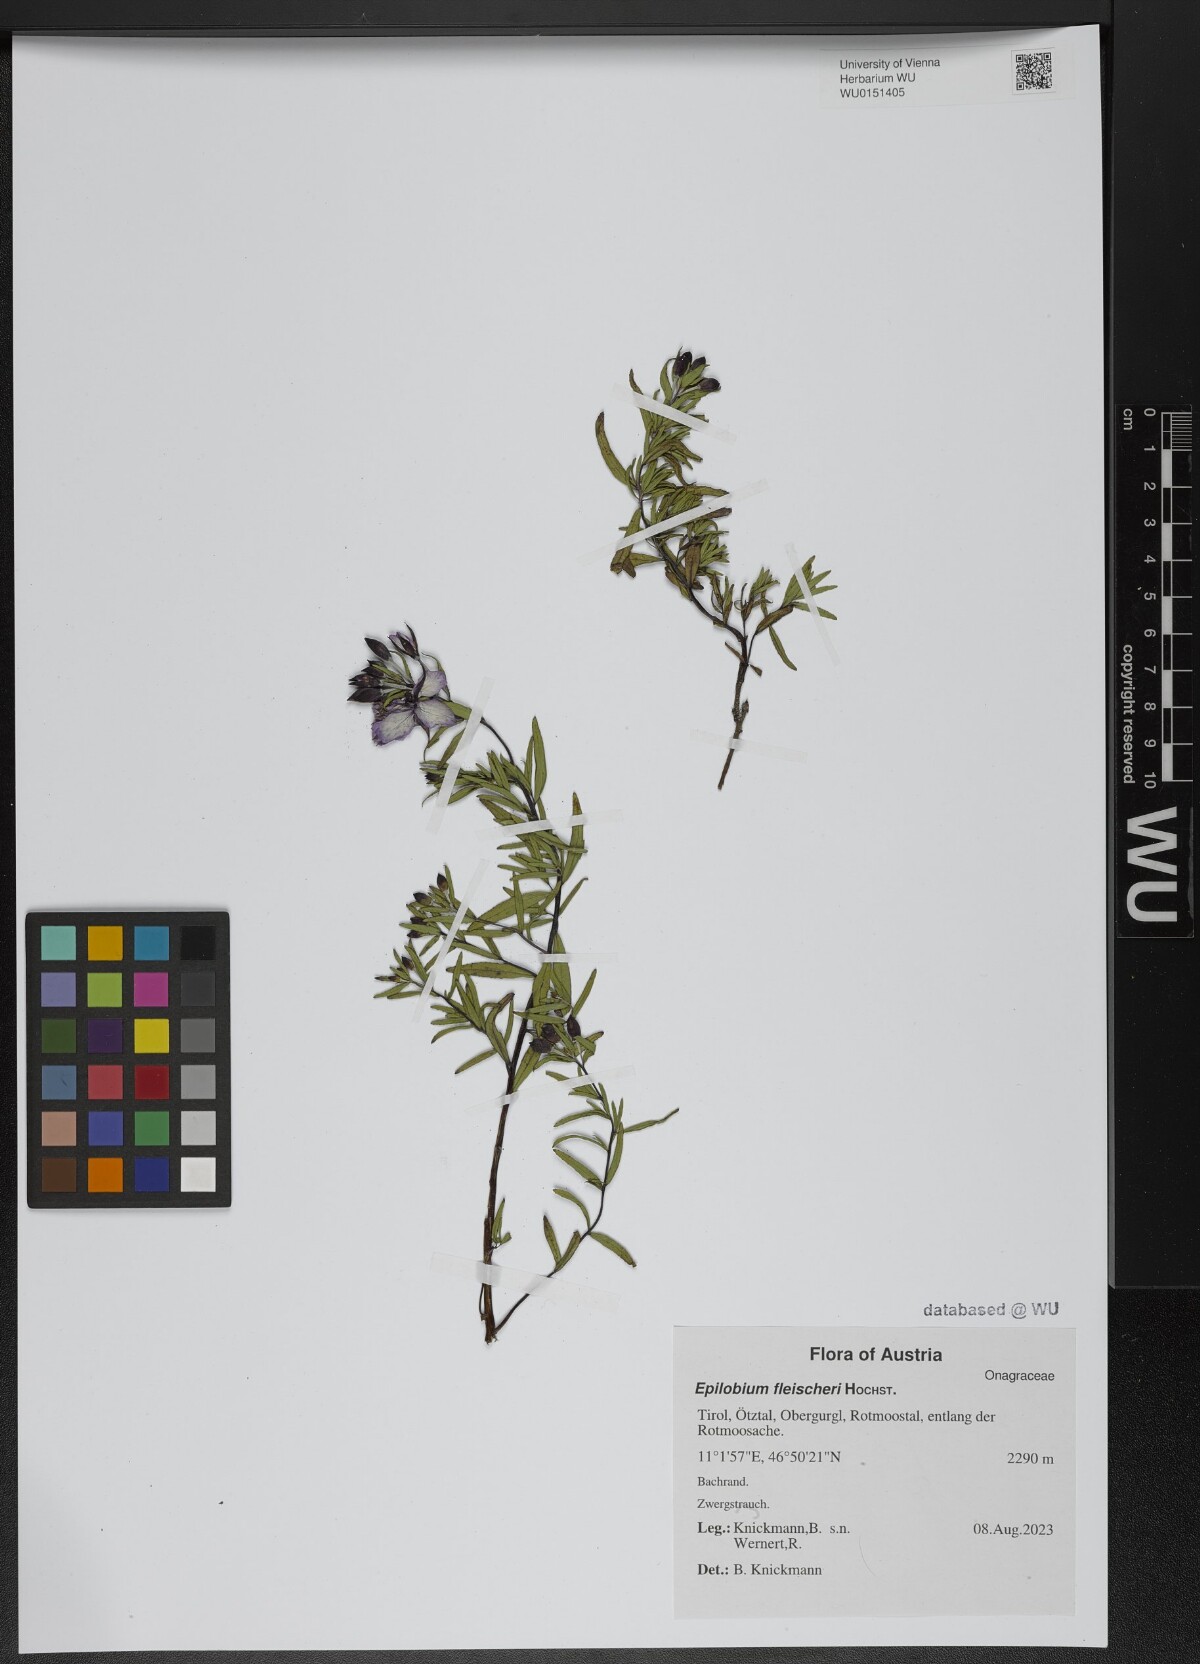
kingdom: Plantae
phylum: Tracheophyta
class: Magnoliopsida
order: Myrtales
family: Onagraceae
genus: Chamaenerion
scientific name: Chamaenerion fleischeri
